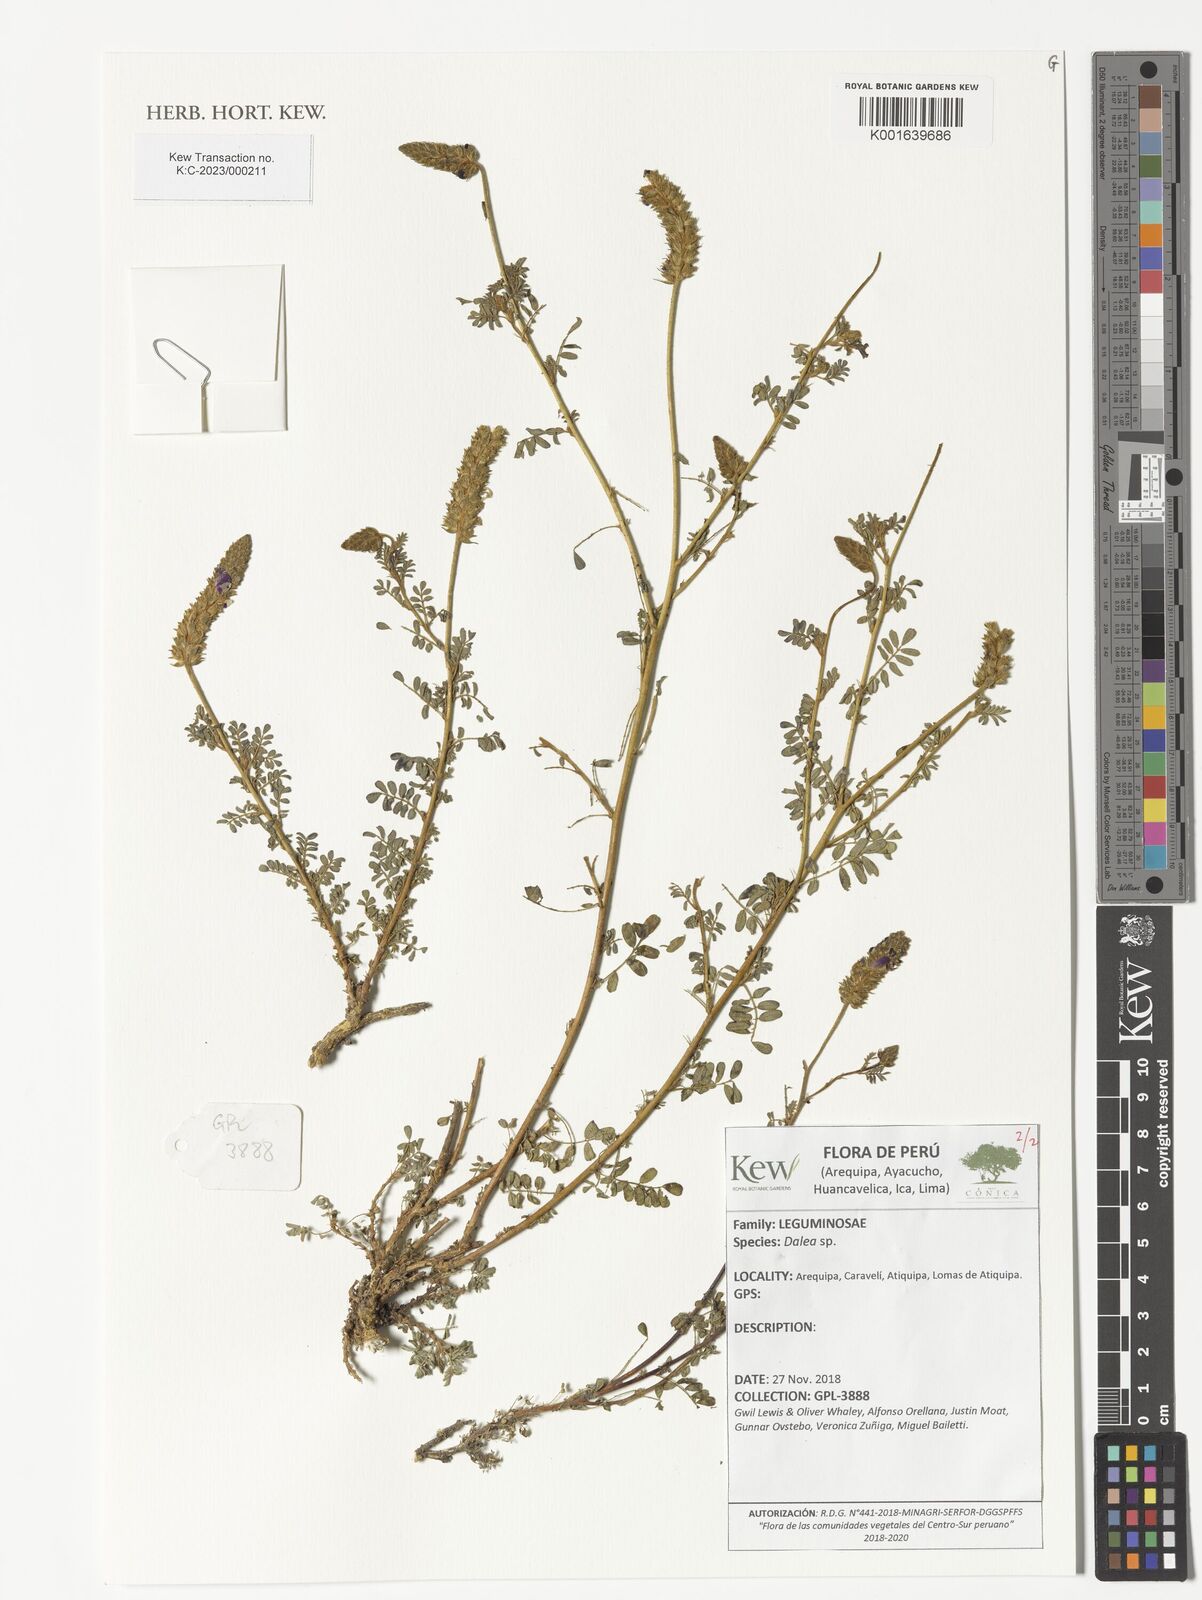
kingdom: Plantae
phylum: Tracheophyta
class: Magnoliopsida
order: Fabales
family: Fabaceae
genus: Dalea
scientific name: Dalea
